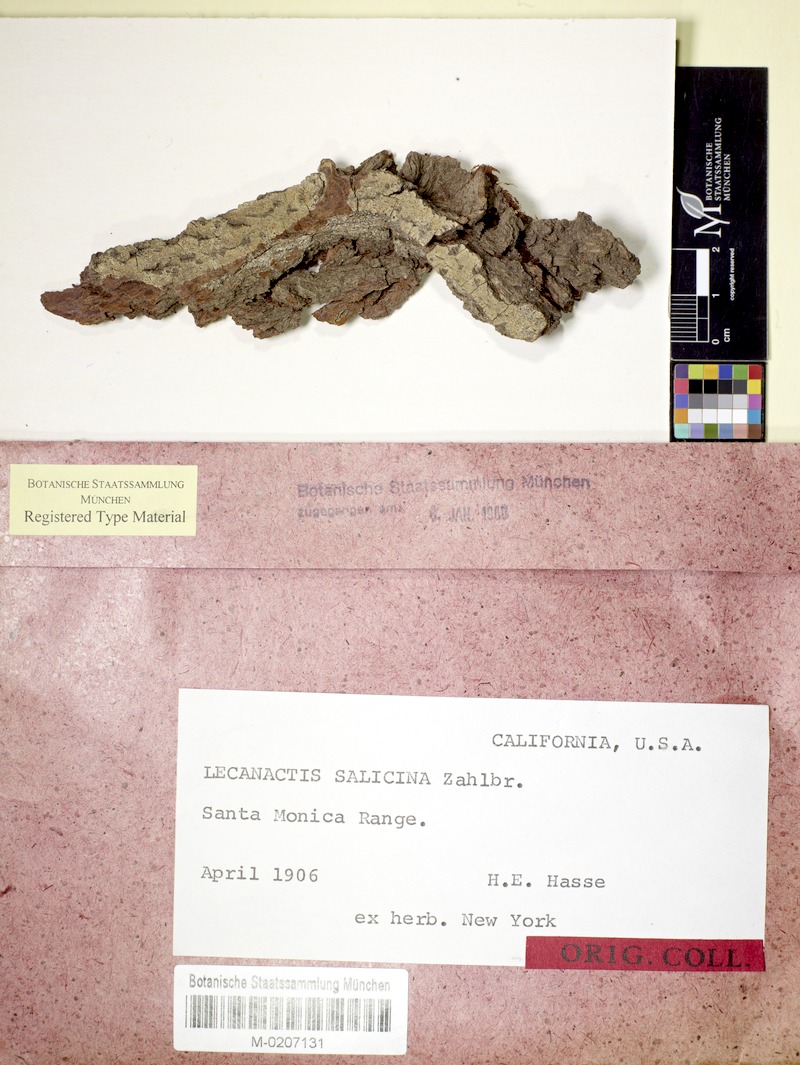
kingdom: Fungi
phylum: Ascomycota
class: Arthoniomycetes
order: Arthoniales
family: Roccellaceae
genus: Lecanactis
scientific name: Lecanactis salicina
